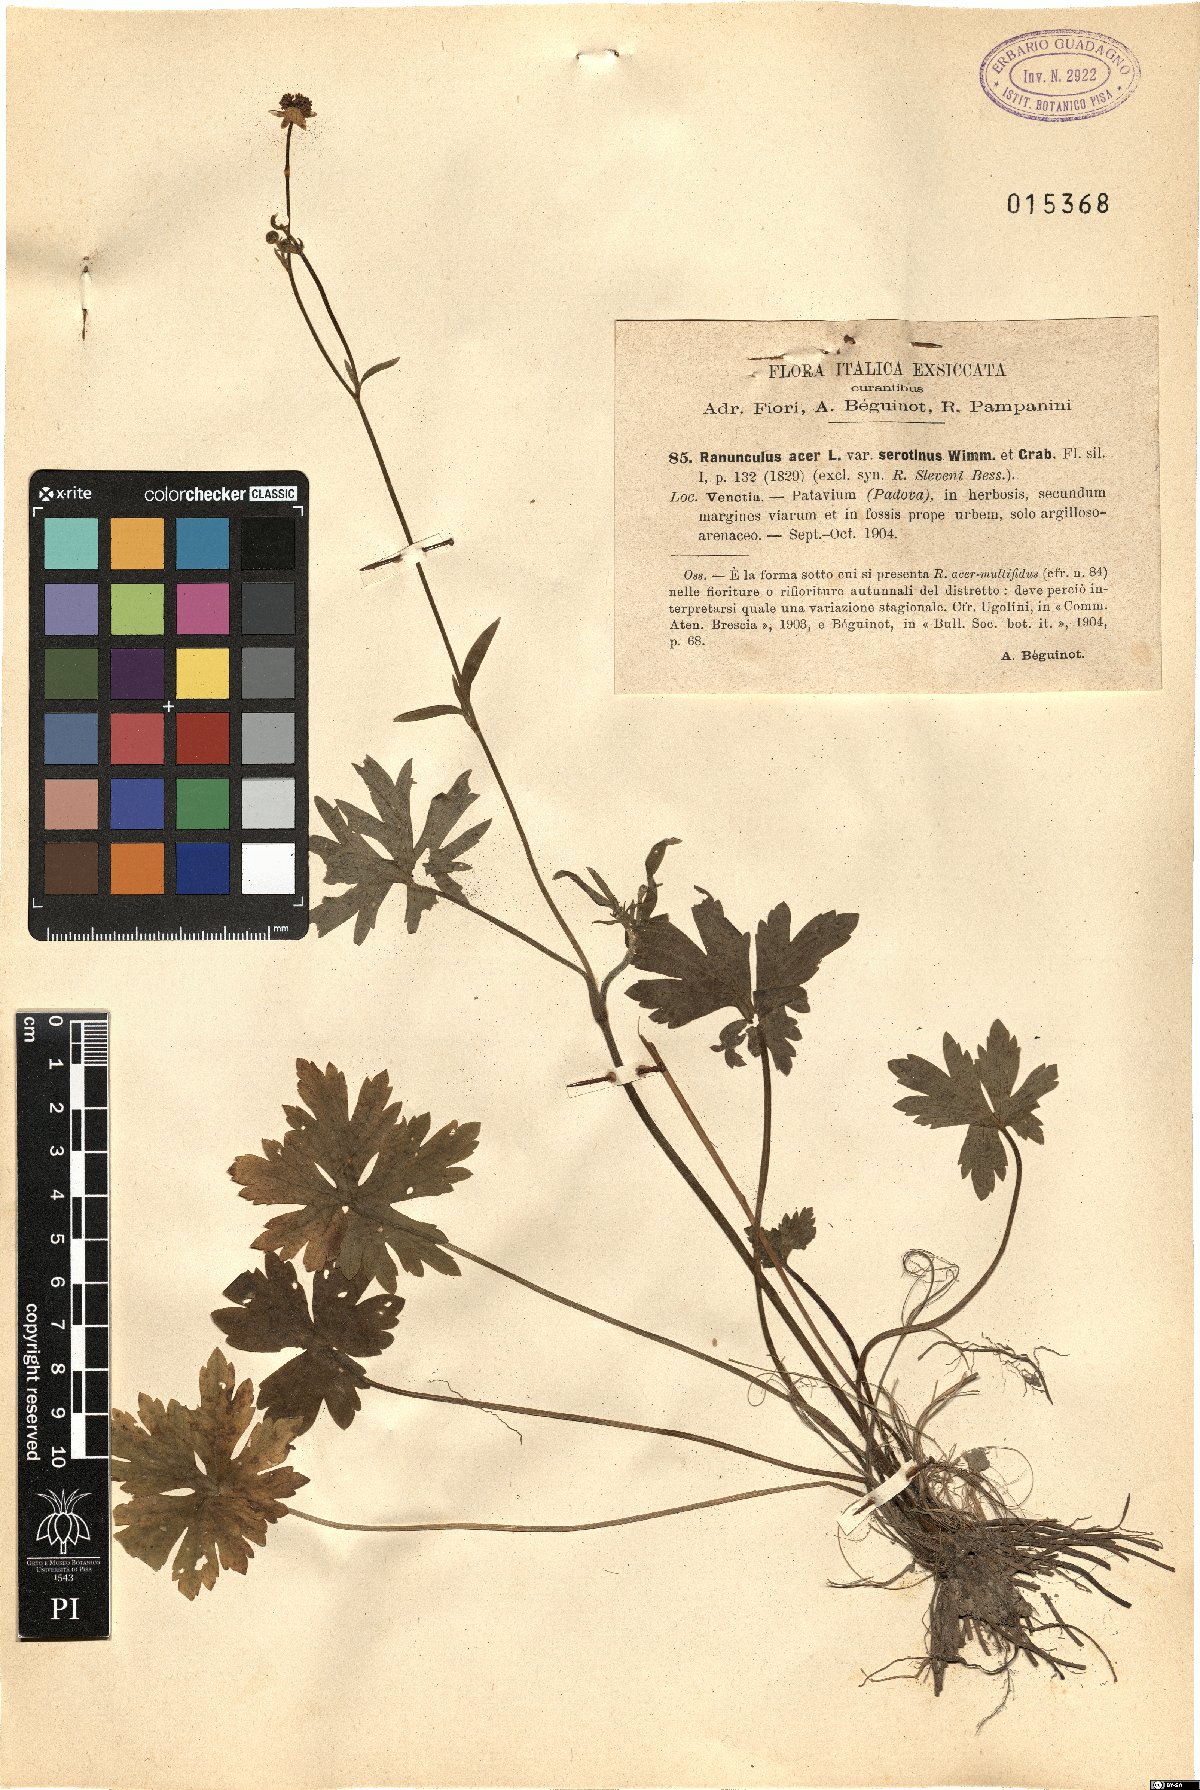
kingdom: Plantae
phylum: Tracheophyta
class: Magnoliopsida
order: Ranunculales
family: Ranunculaceae
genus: Ranunculus
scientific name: Ranunculus acris
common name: Meadow buttercup
